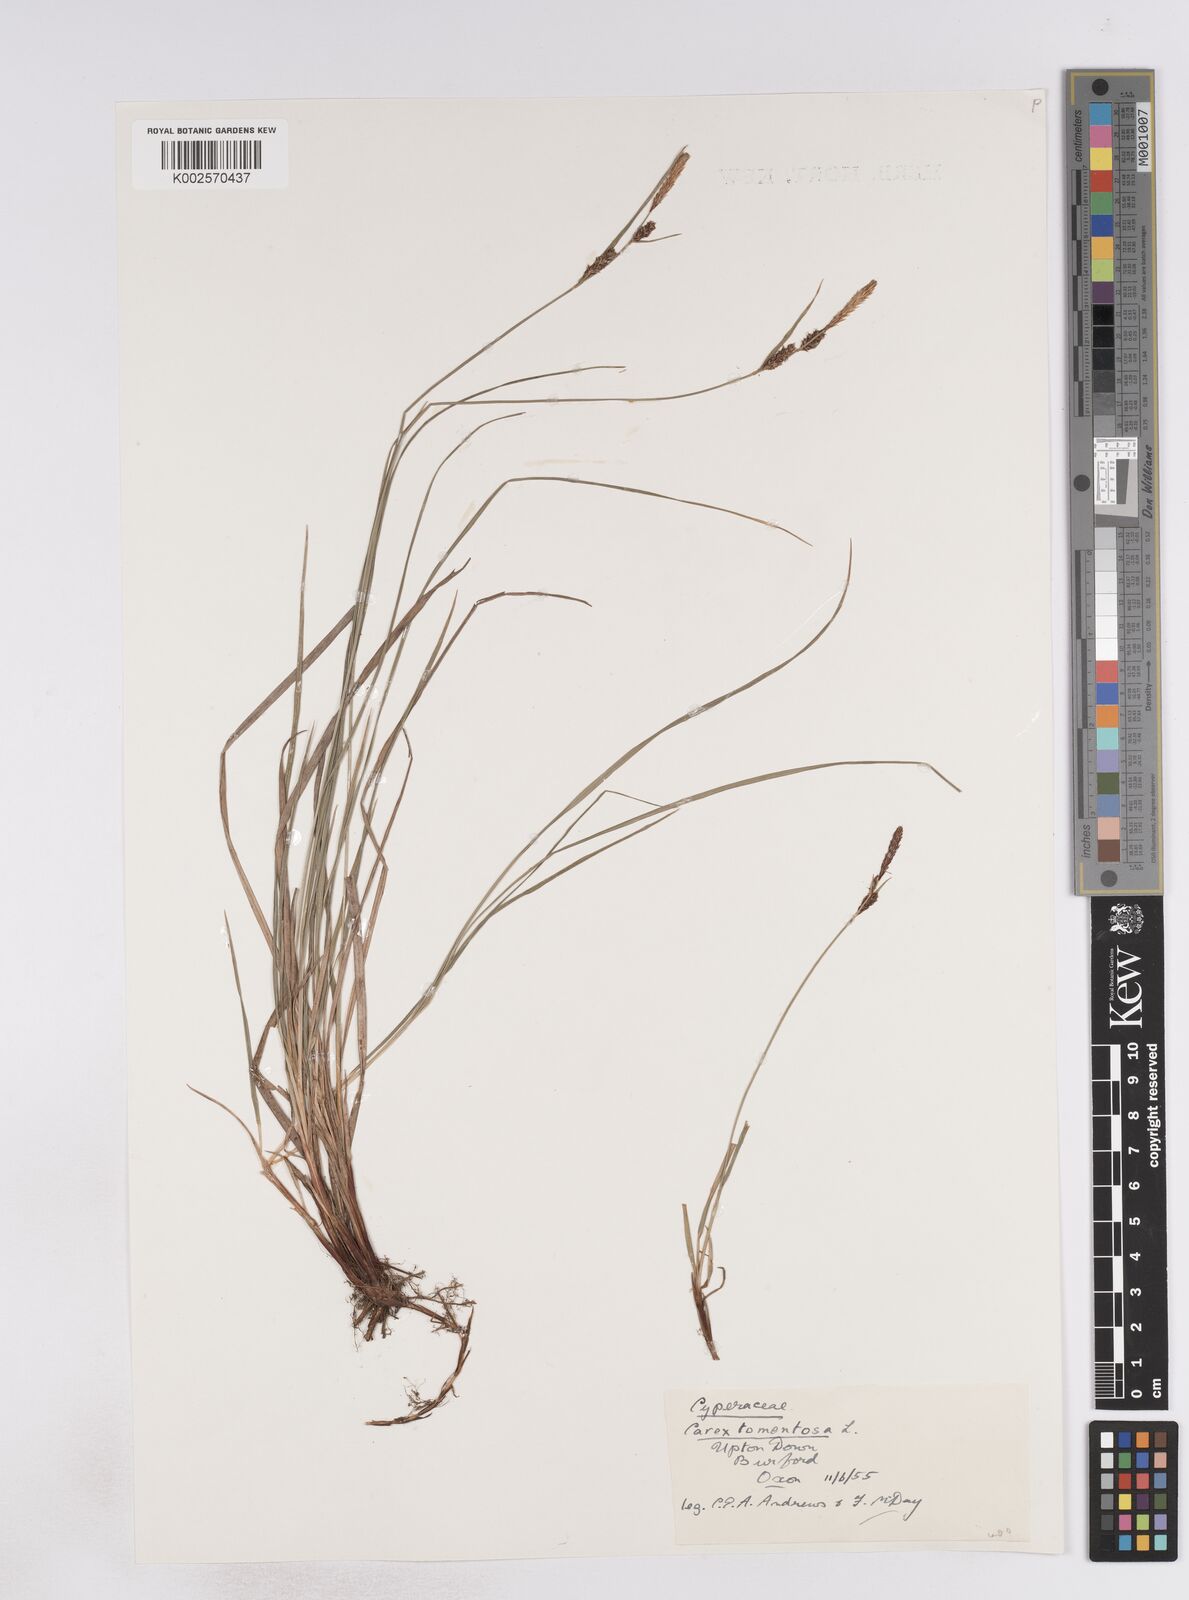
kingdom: Plantae
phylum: Tracheophyta
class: Liliopsida
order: Poales
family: Cyperaceae
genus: Carex
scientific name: Carex montana
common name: Soft-leaved sedge
